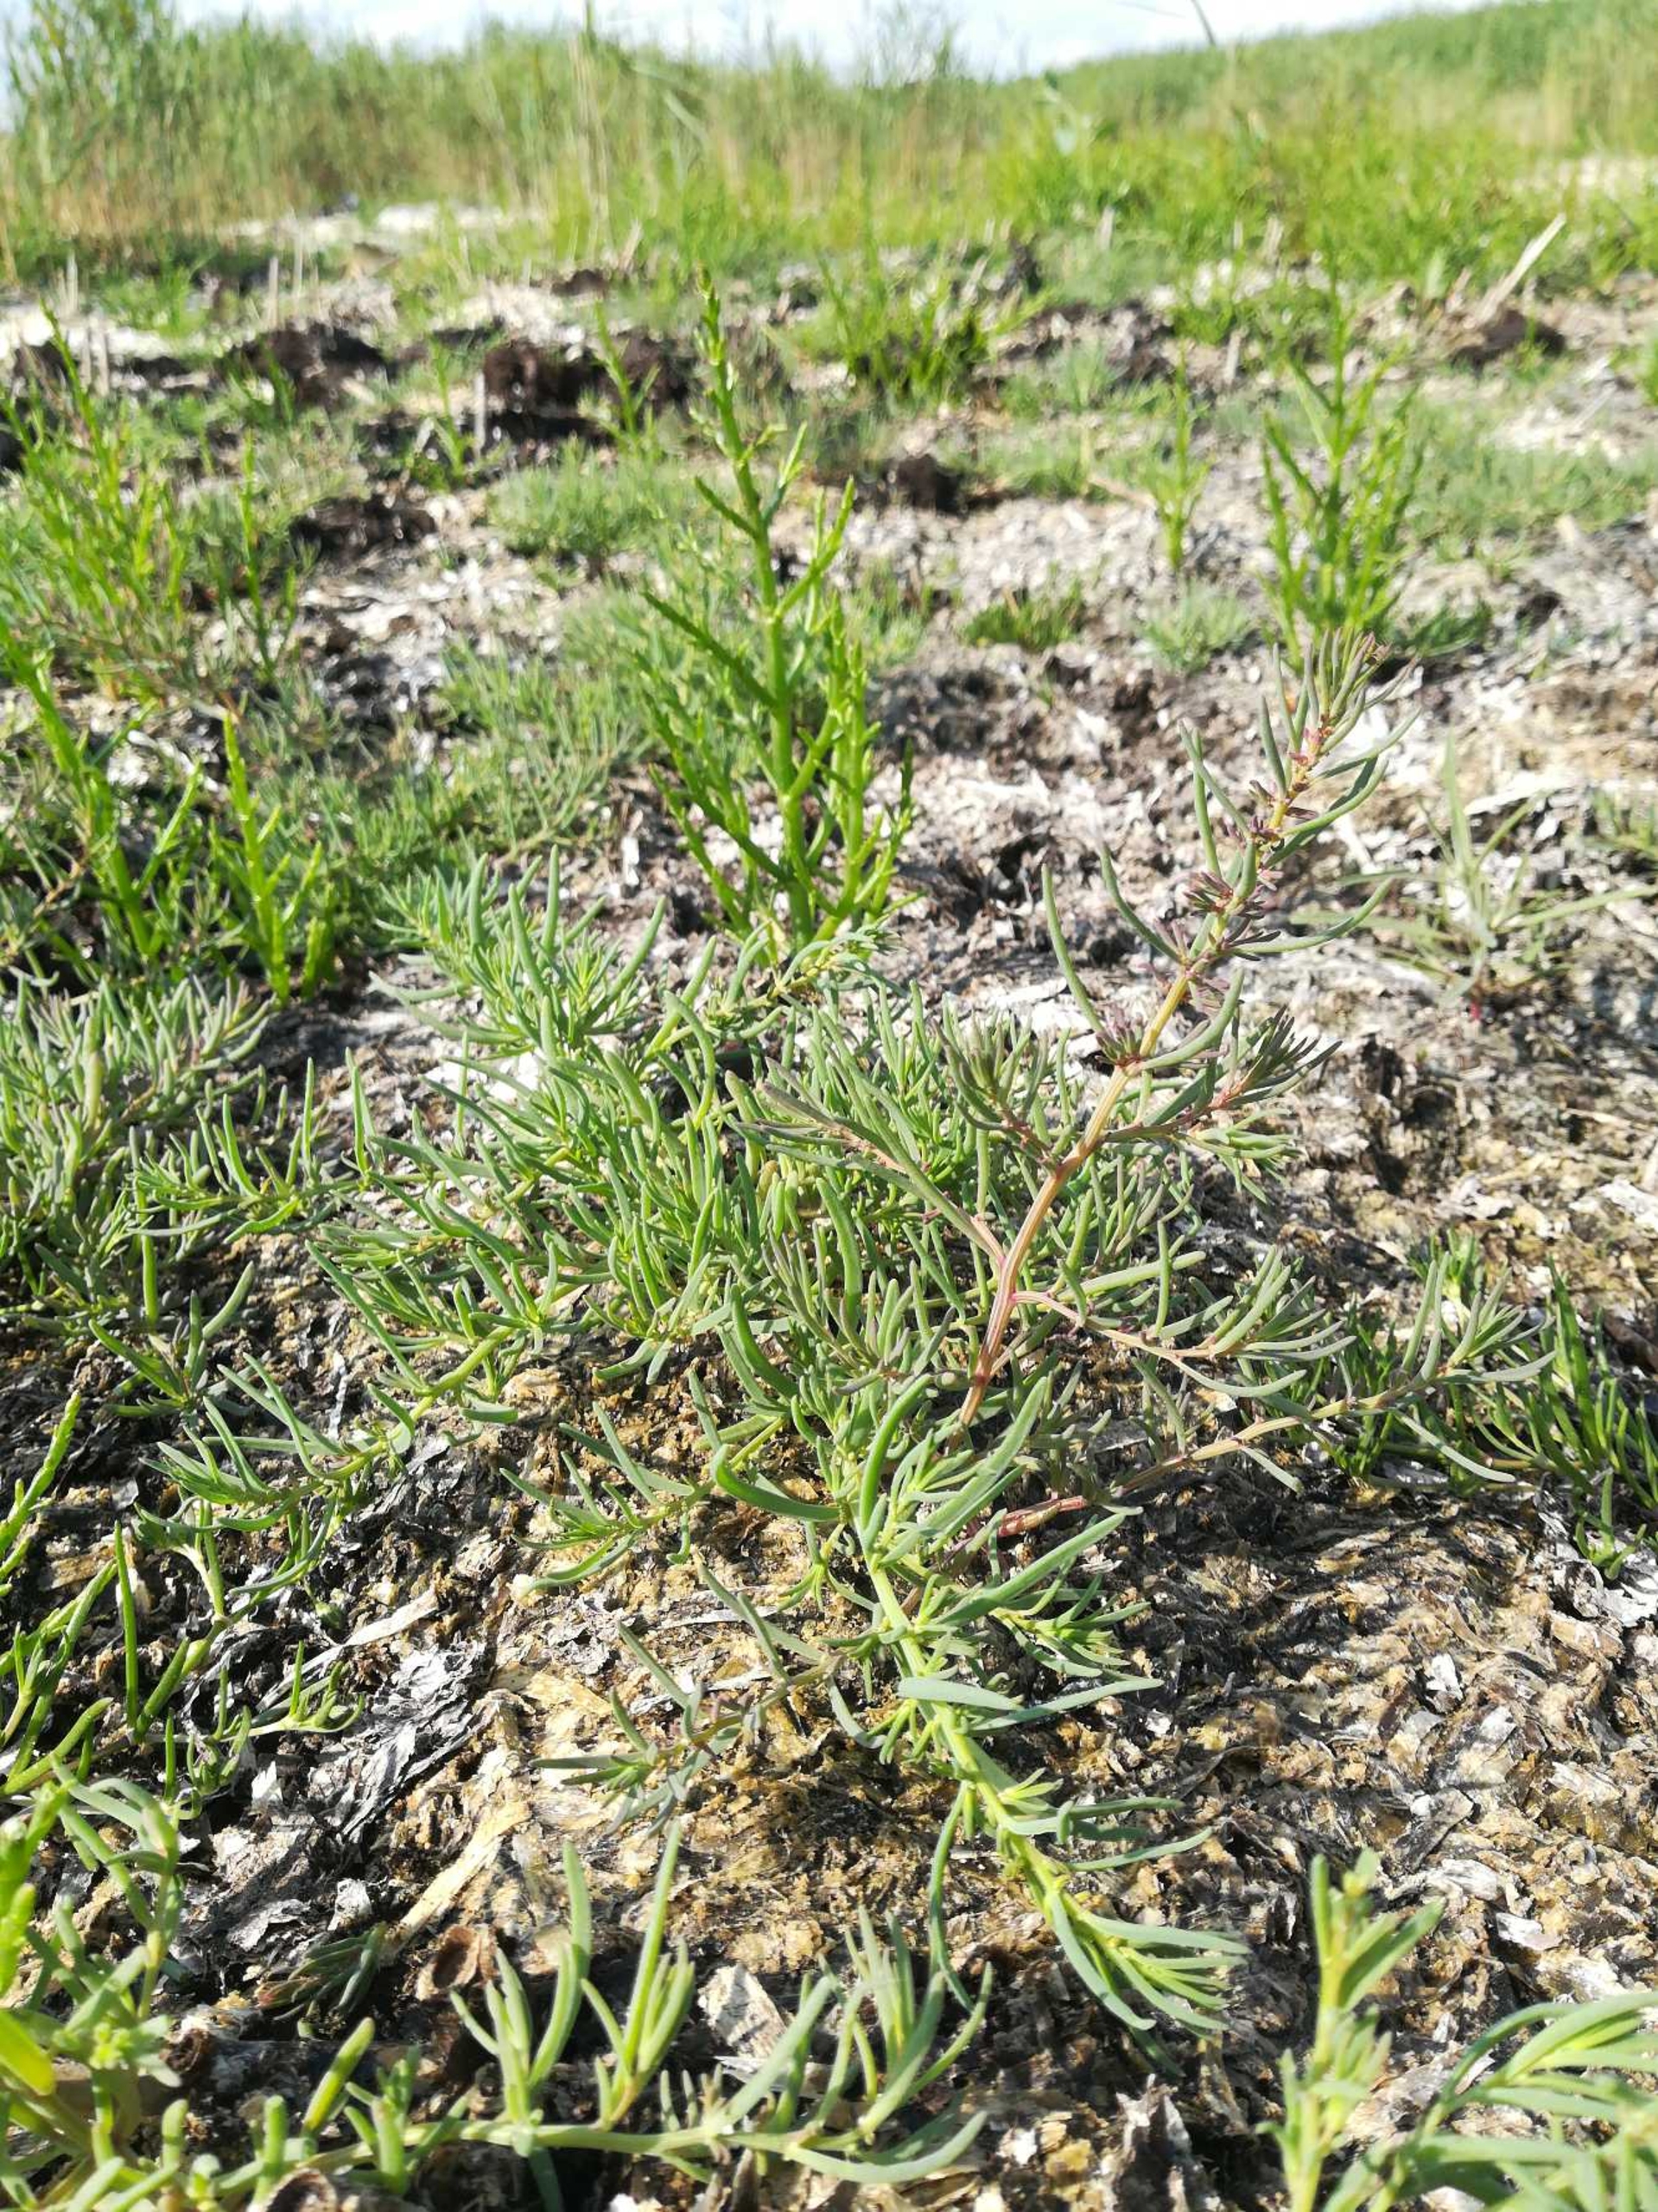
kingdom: Plantae
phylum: Tracheophyta
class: Magnoliopsida
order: Caryophyllales
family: Amaranthaceae
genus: Suaeda
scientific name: Suaeda maritima
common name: Strandgåsefod
